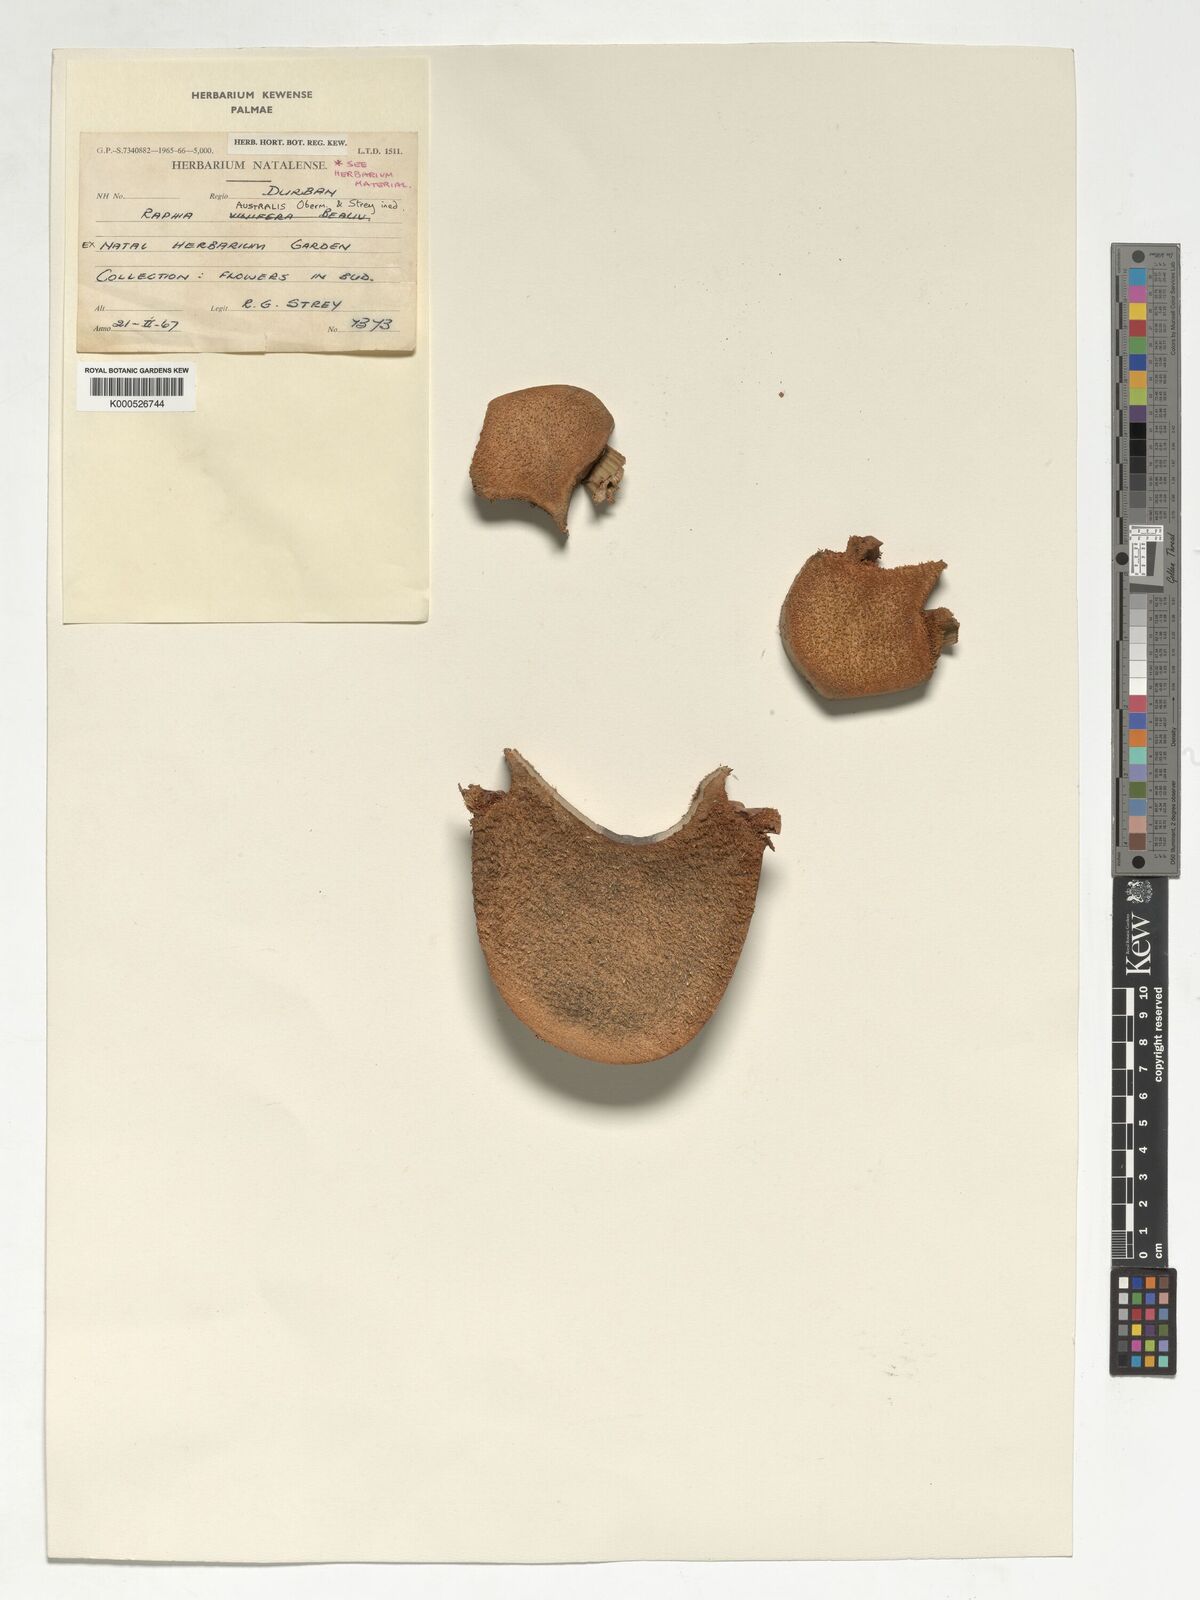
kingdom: Plantae
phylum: Tracheophyta
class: Liliopsida
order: Arecales
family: Arecaceae
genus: Raphia
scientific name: Raphia australis
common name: Giant palm
